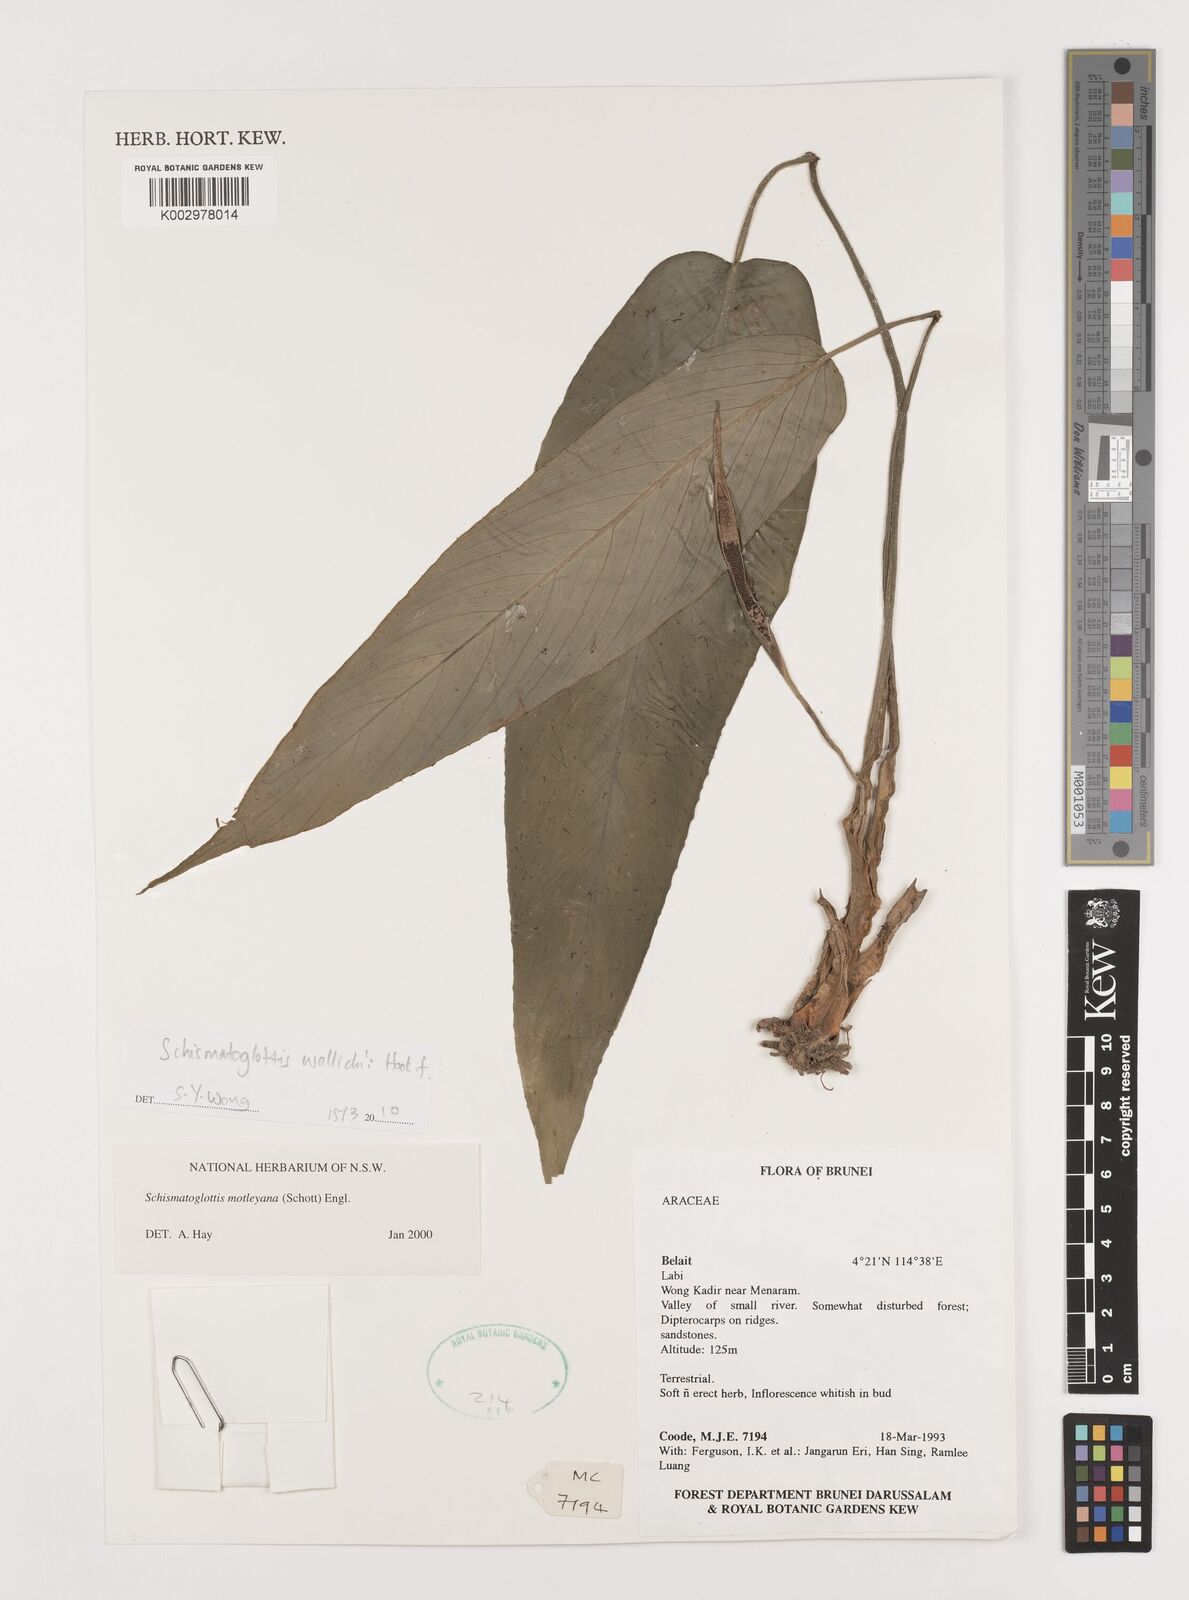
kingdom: Plantae
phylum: Tracheophyta
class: Liliopsida
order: Alismatales
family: Araceae
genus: Schismatoglottis
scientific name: Schismatoglottis motleyana
